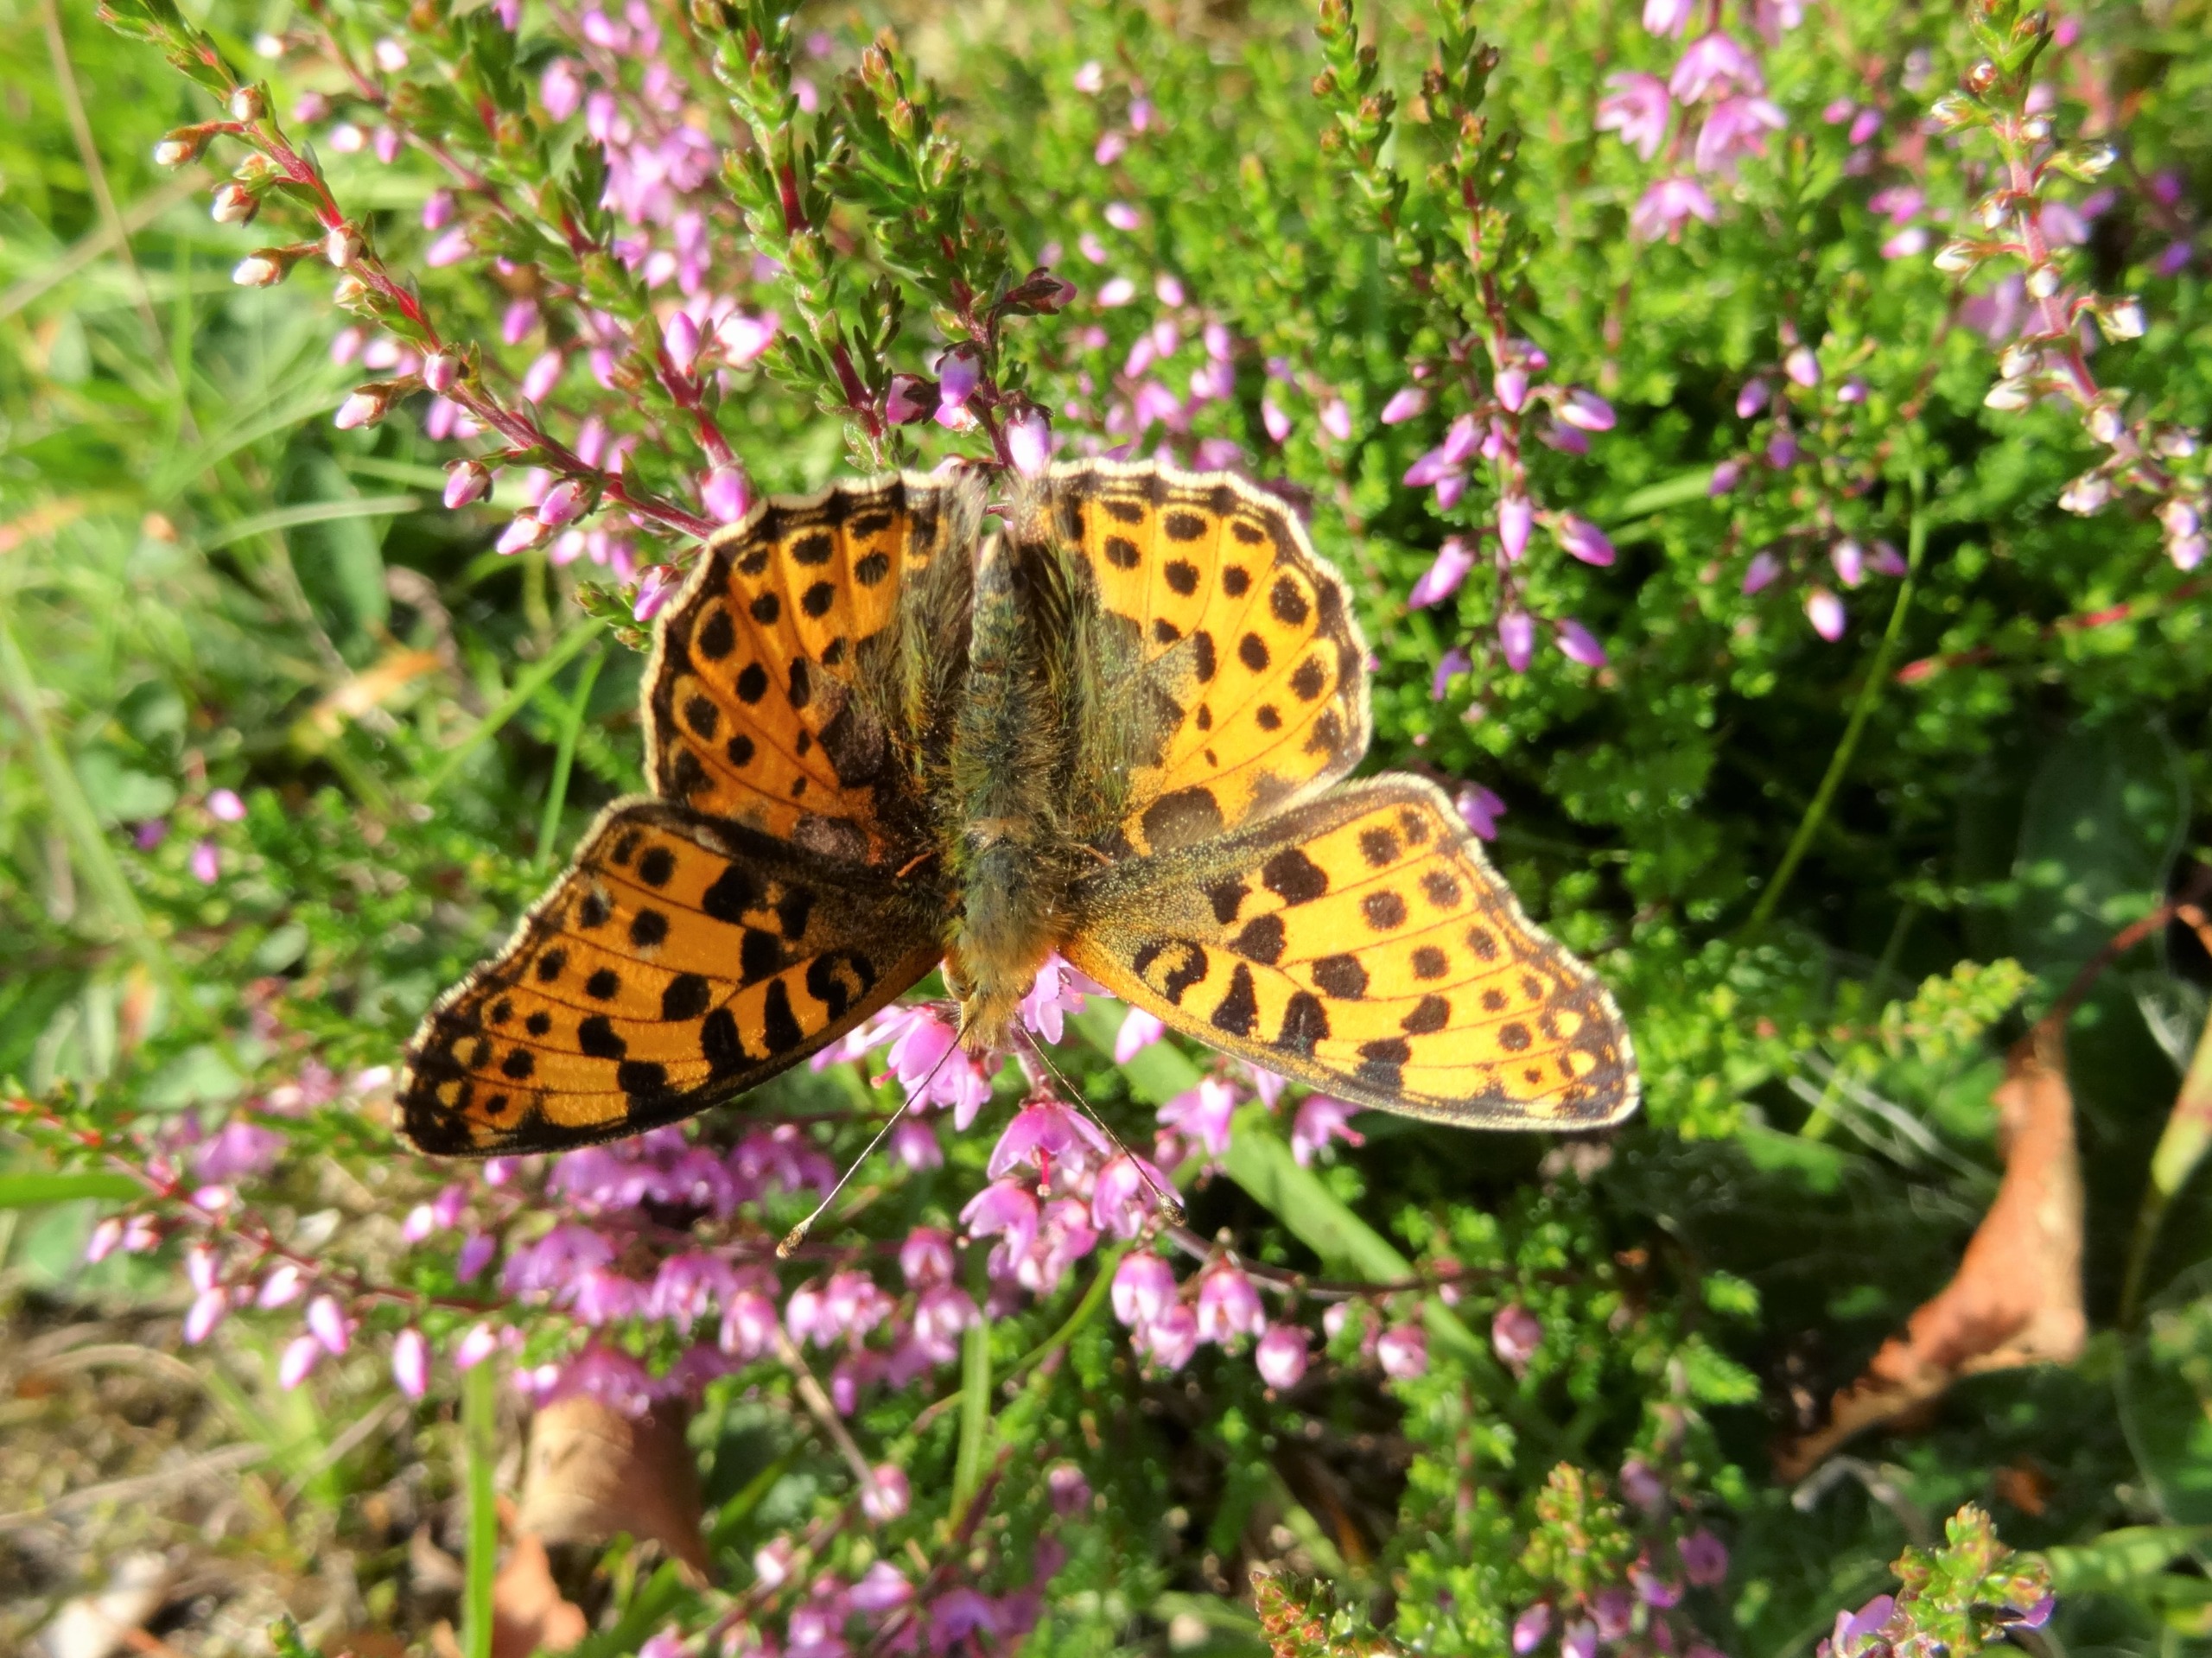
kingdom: Animalia
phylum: Arthropoda
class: Insecta
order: Lepidoptera
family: Nymphalidae
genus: Issoria
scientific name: Issoria lathonia
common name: Storplettet perlemorsommerfugl
